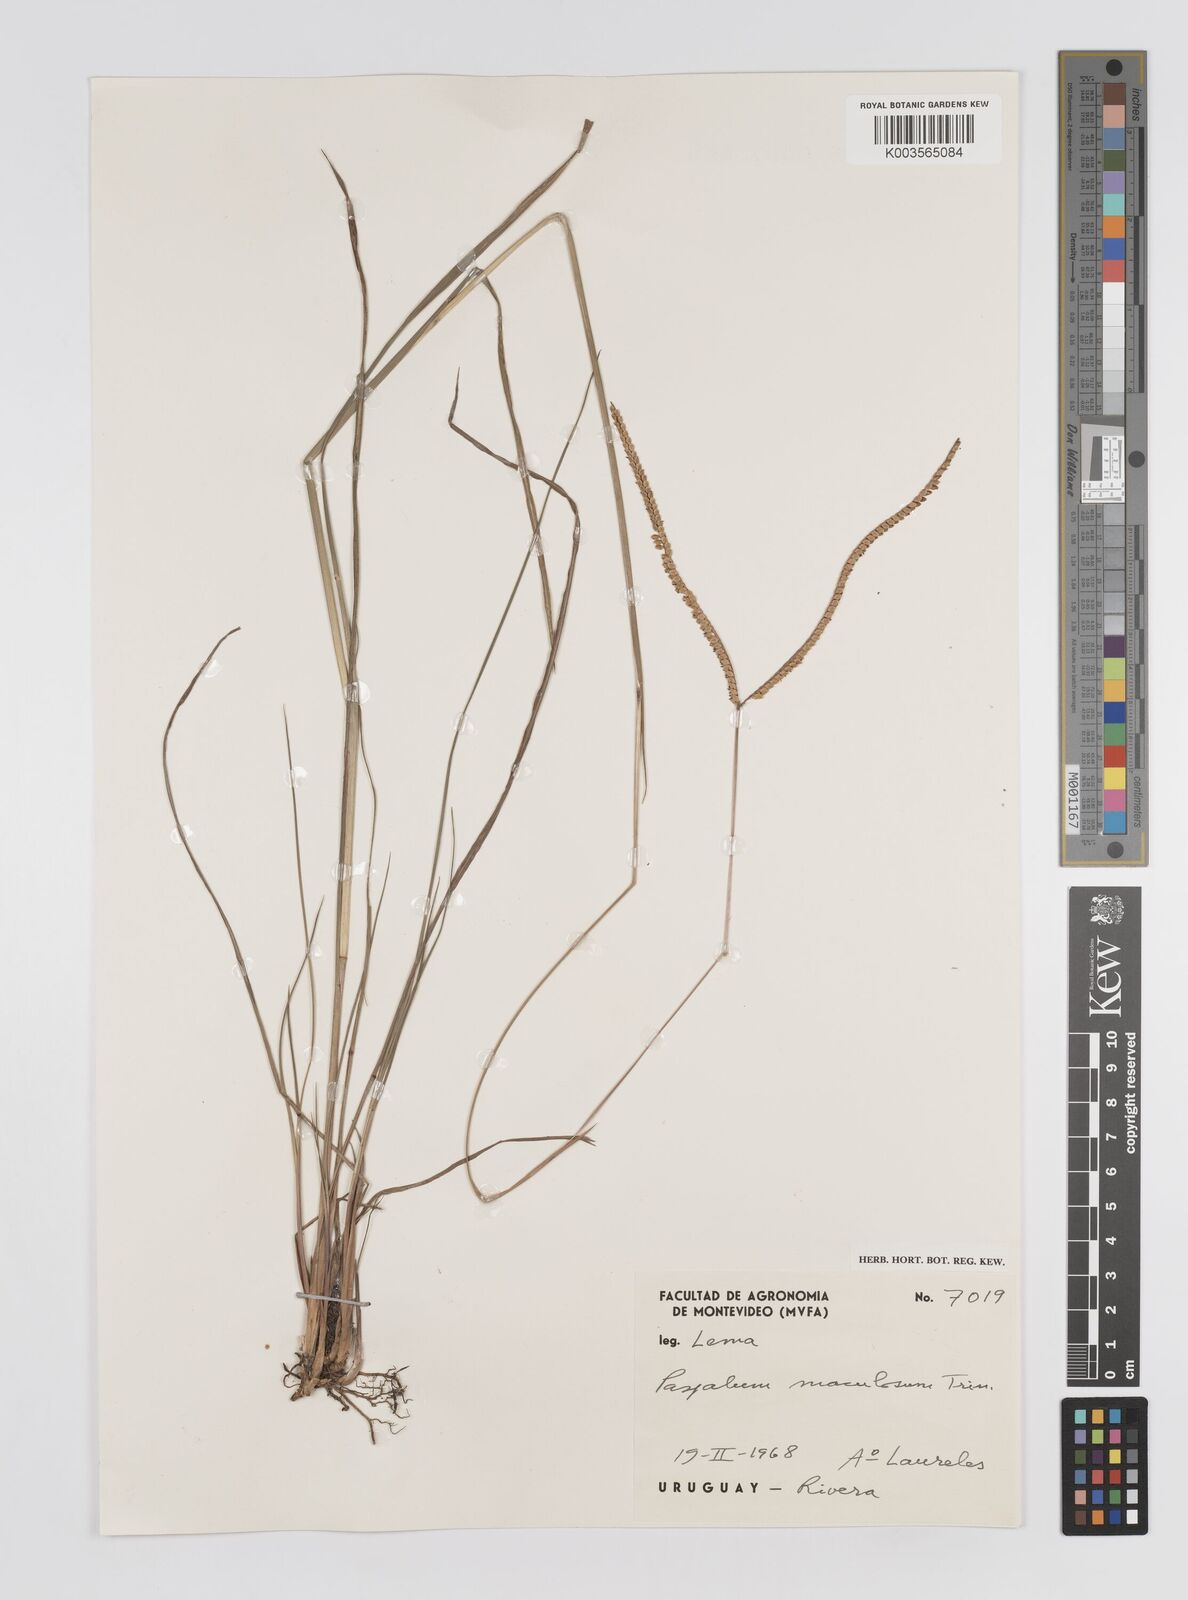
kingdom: Plantae
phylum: Tracheophyta
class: Liliopsida
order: Poales
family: Poaceae
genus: Paspalum
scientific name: Paspalum maculosum
